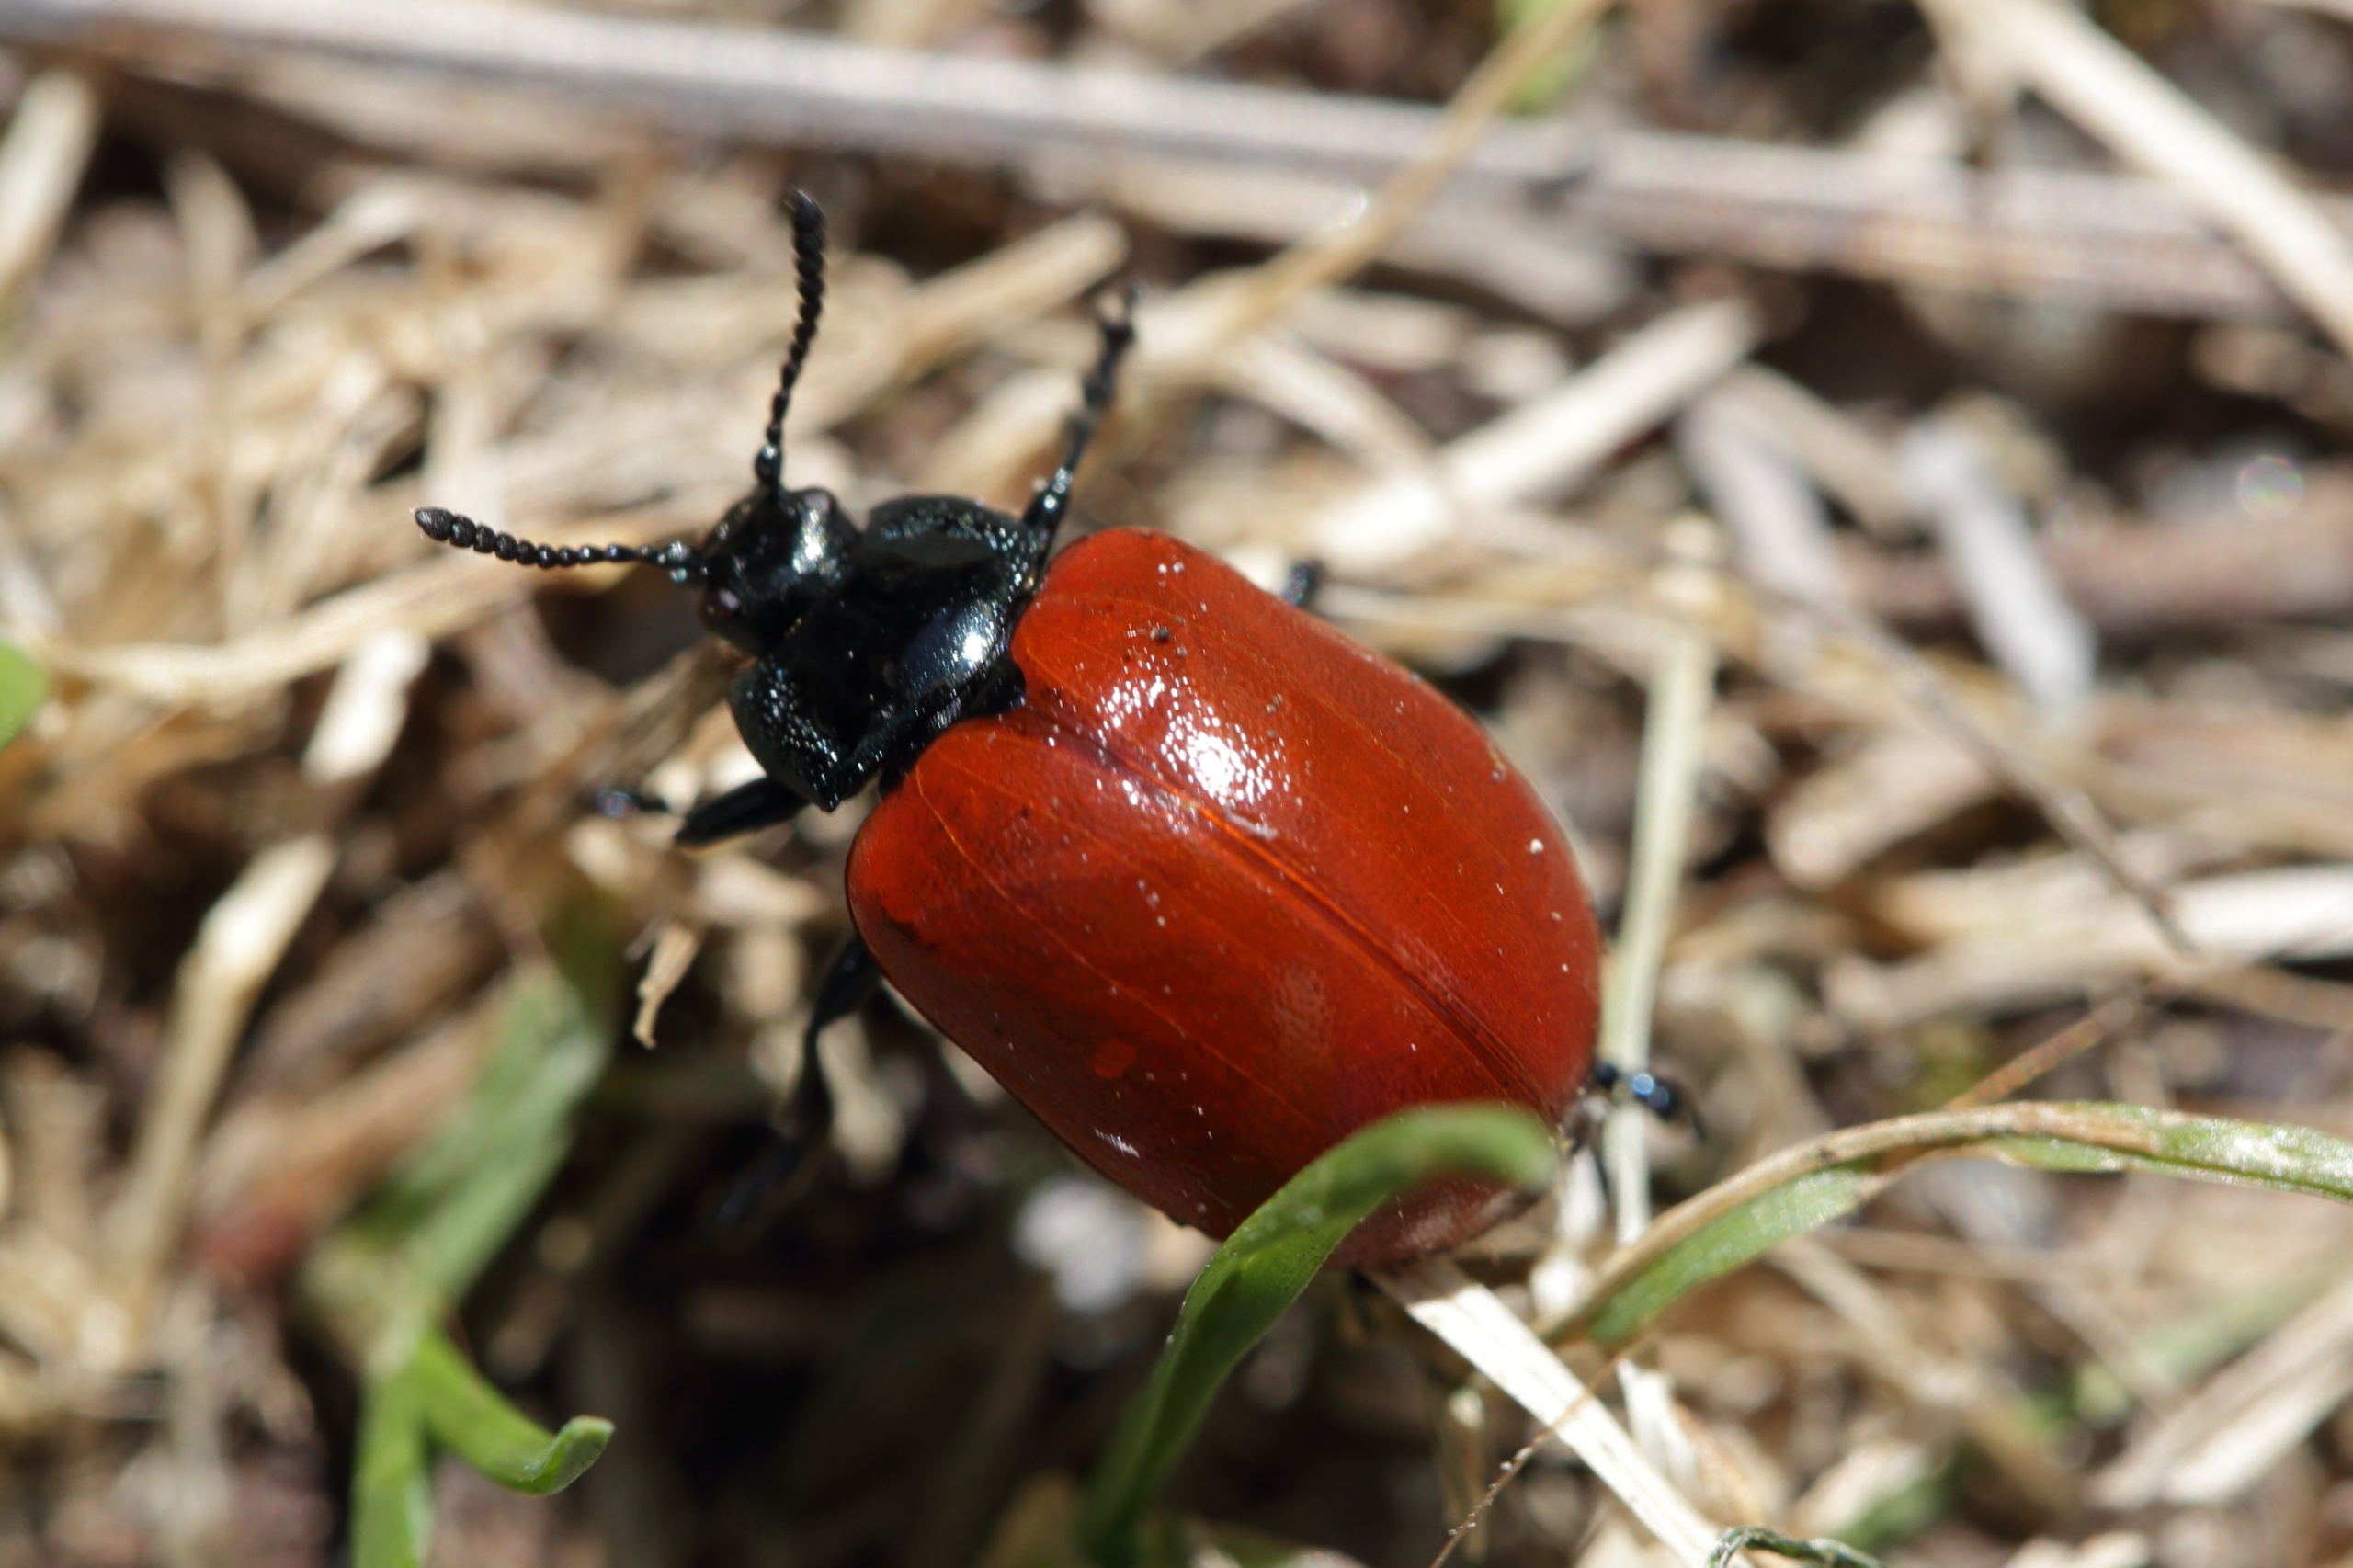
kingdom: Animalia
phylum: Arthropoda
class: Insecta
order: Coleoptera
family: Chrysomelidae
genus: Chrysomela
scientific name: Chrysomela populi
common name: Poppelbladbille
